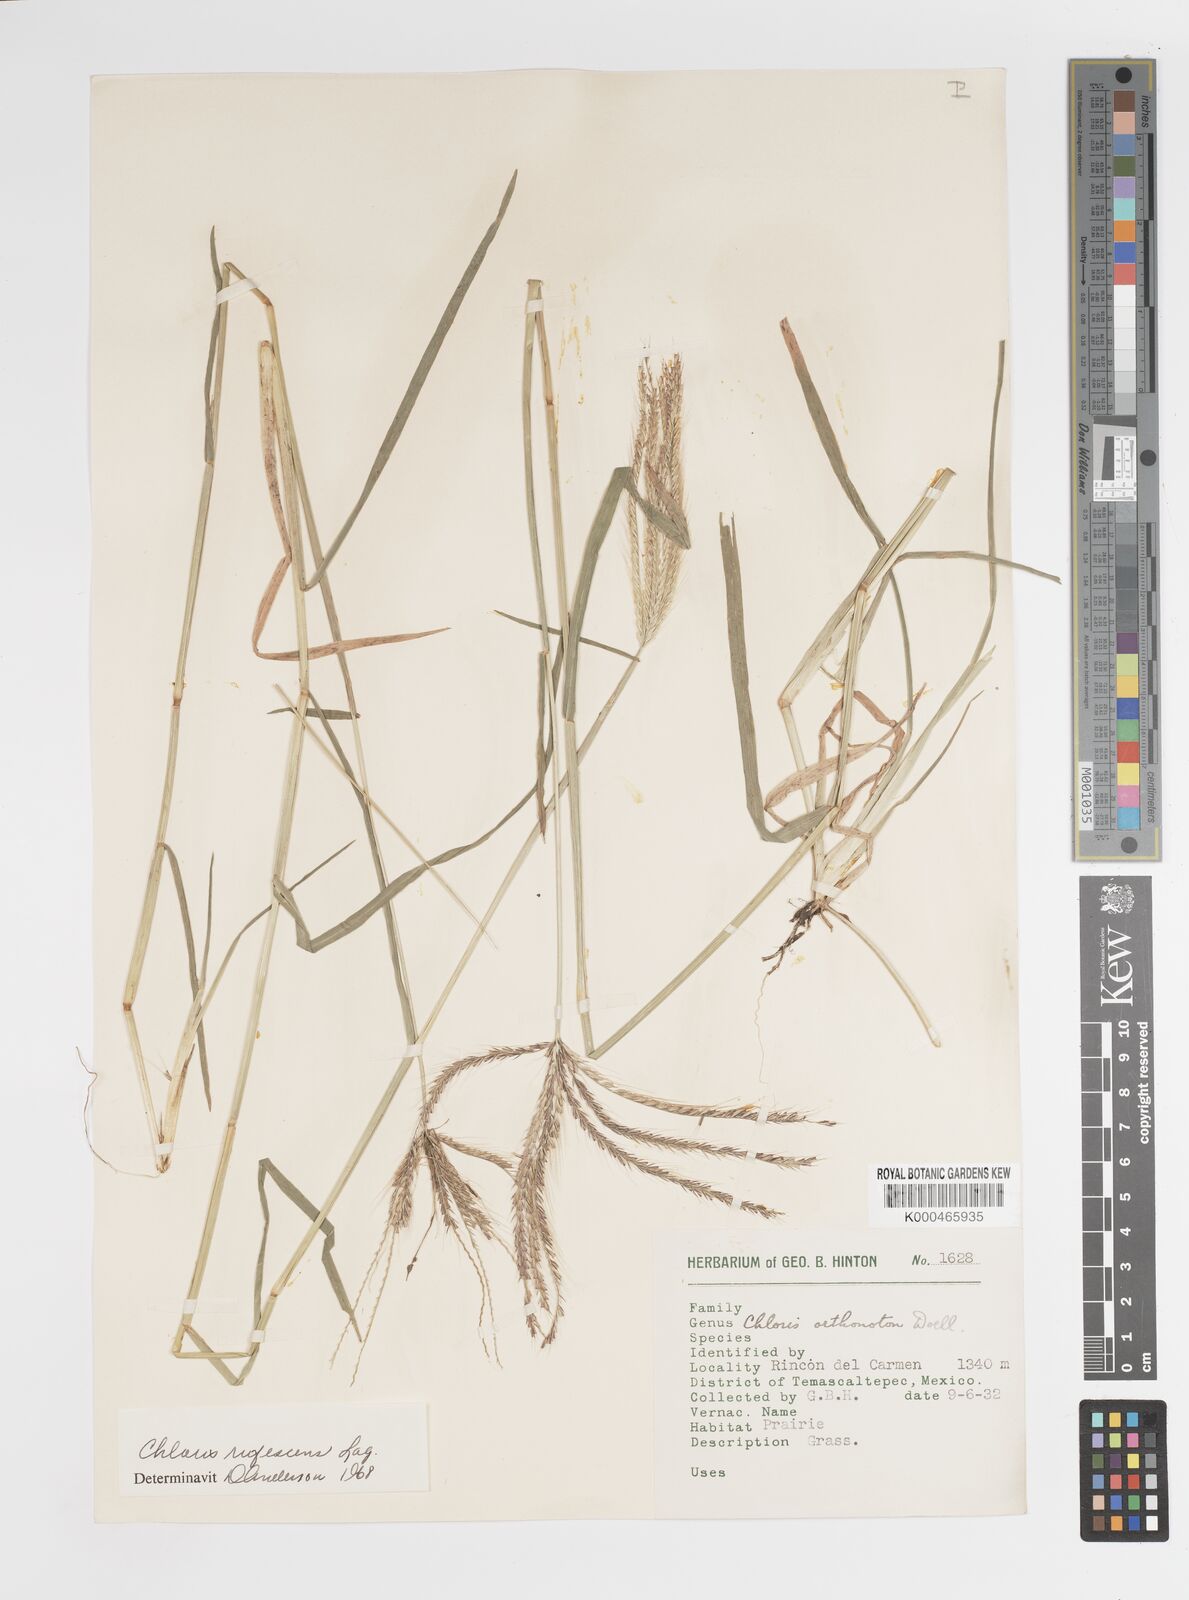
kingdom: Plantae
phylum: Tracheophyta
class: Liliopsida
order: Poales
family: Poaceae
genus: Chloris
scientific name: Chloris rufescens
